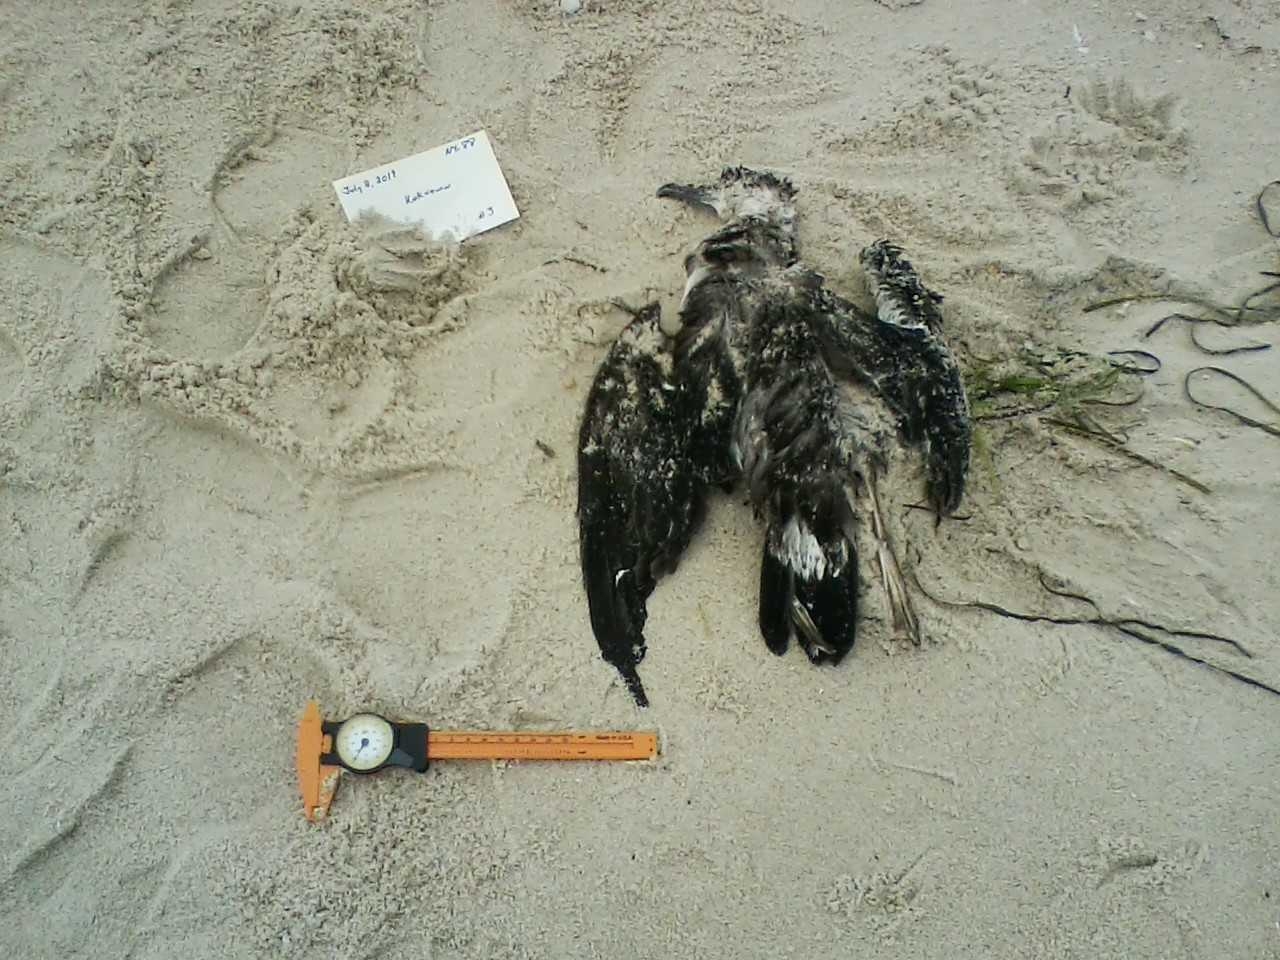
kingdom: Animalia
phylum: Chordata
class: Aves
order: Charadriiformes
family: Laridae
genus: Sterna
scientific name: Sterna hirundo
